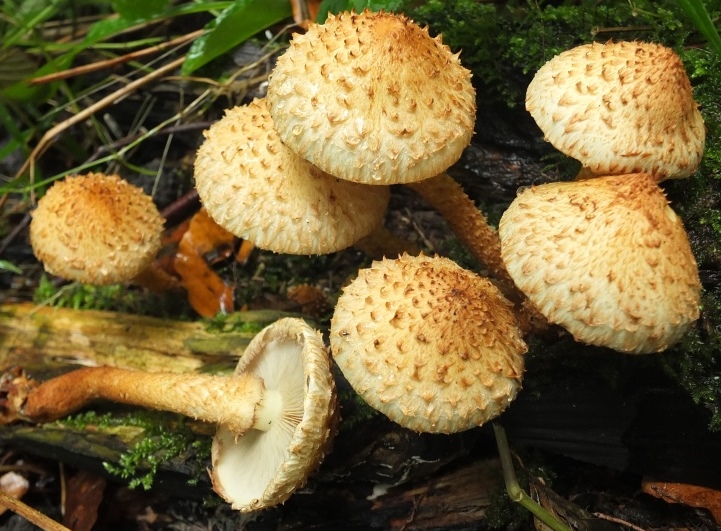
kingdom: Fungi
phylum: Basidiomycota
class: Agaricomycetes
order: Agaricales
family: Strophariaceae
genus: Pholiota
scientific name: Pholiota squarrosa
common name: krumskællet skælhat
